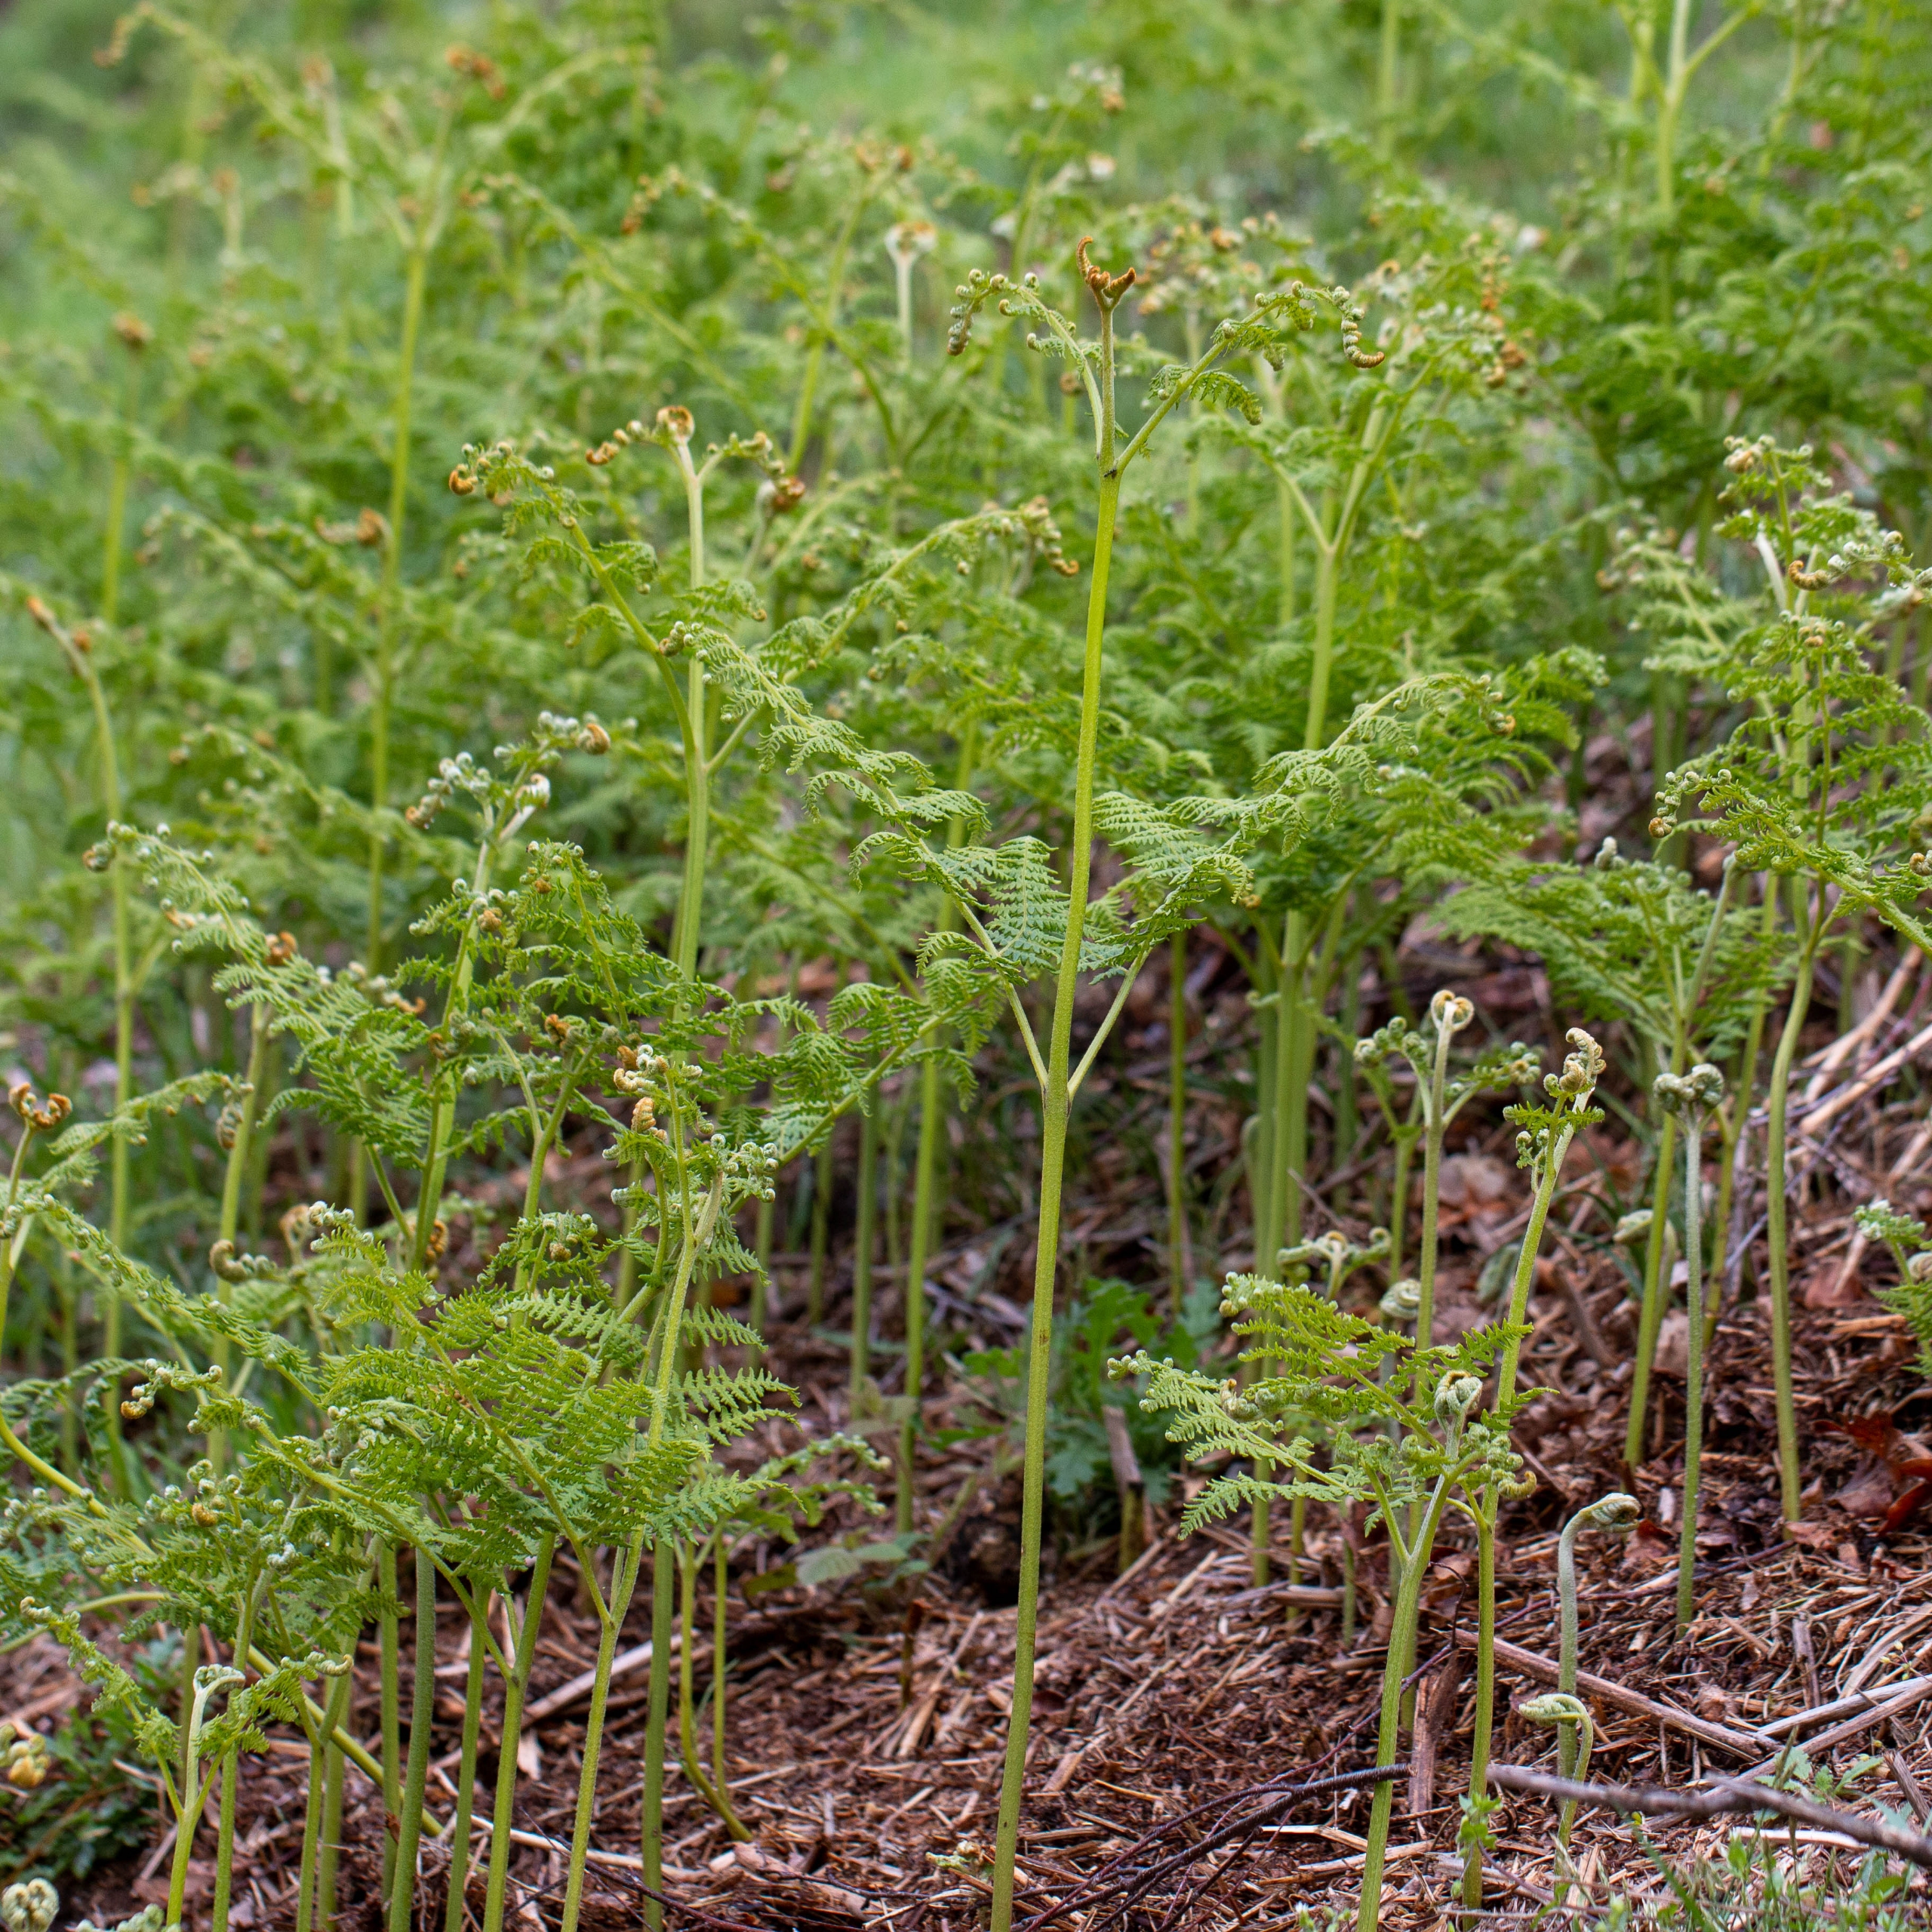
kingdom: Plantae
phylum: Tracheophyta
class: Polypodiopsida
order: Polypodiales
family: Dennstaedtiaceae
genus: Pteridium
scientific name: Pteridium aquilinum
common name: Ørnebregne
